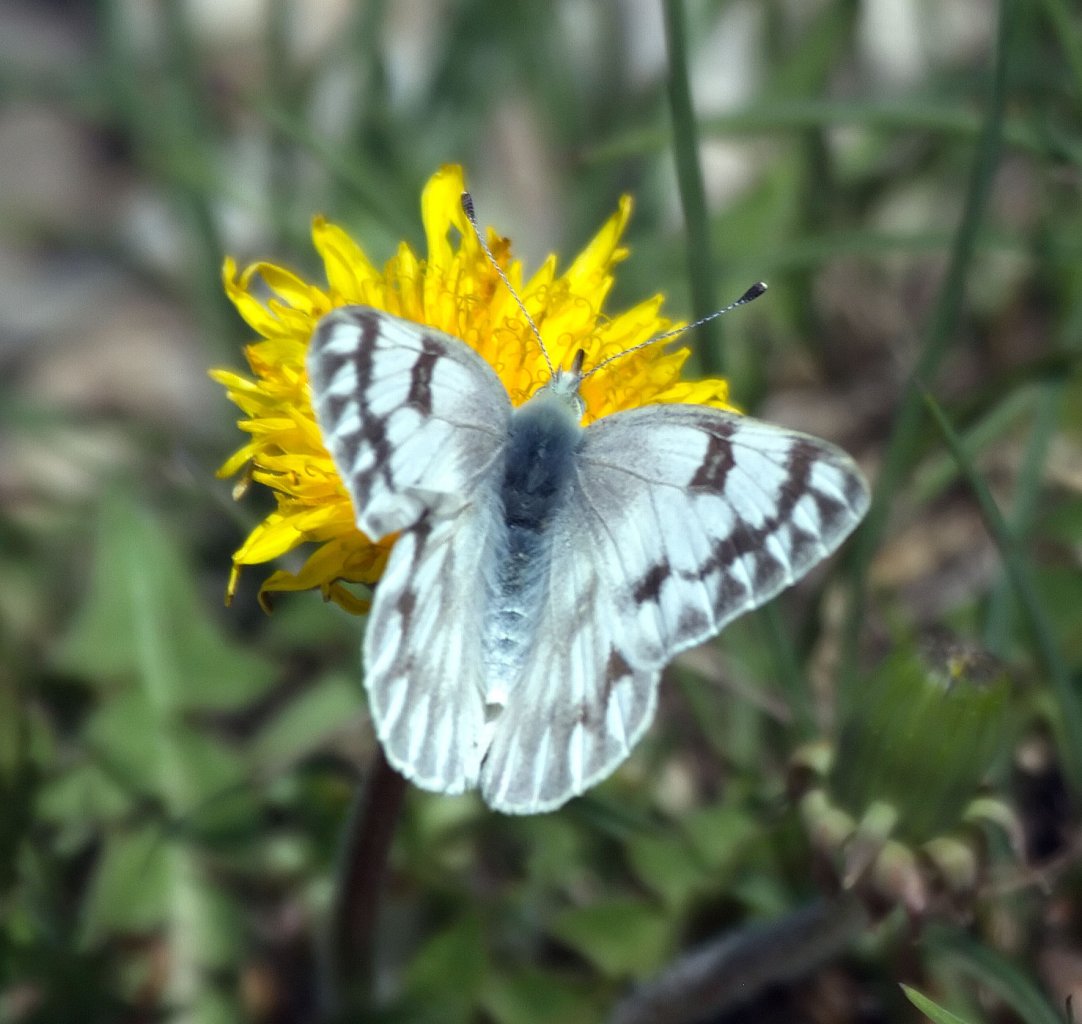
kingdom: Animalia
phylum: Arthropoda
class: Insecta
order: Lepidoptera
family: Pieridae
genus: Pontia
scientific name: Pontia occidentalis
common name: Western White
